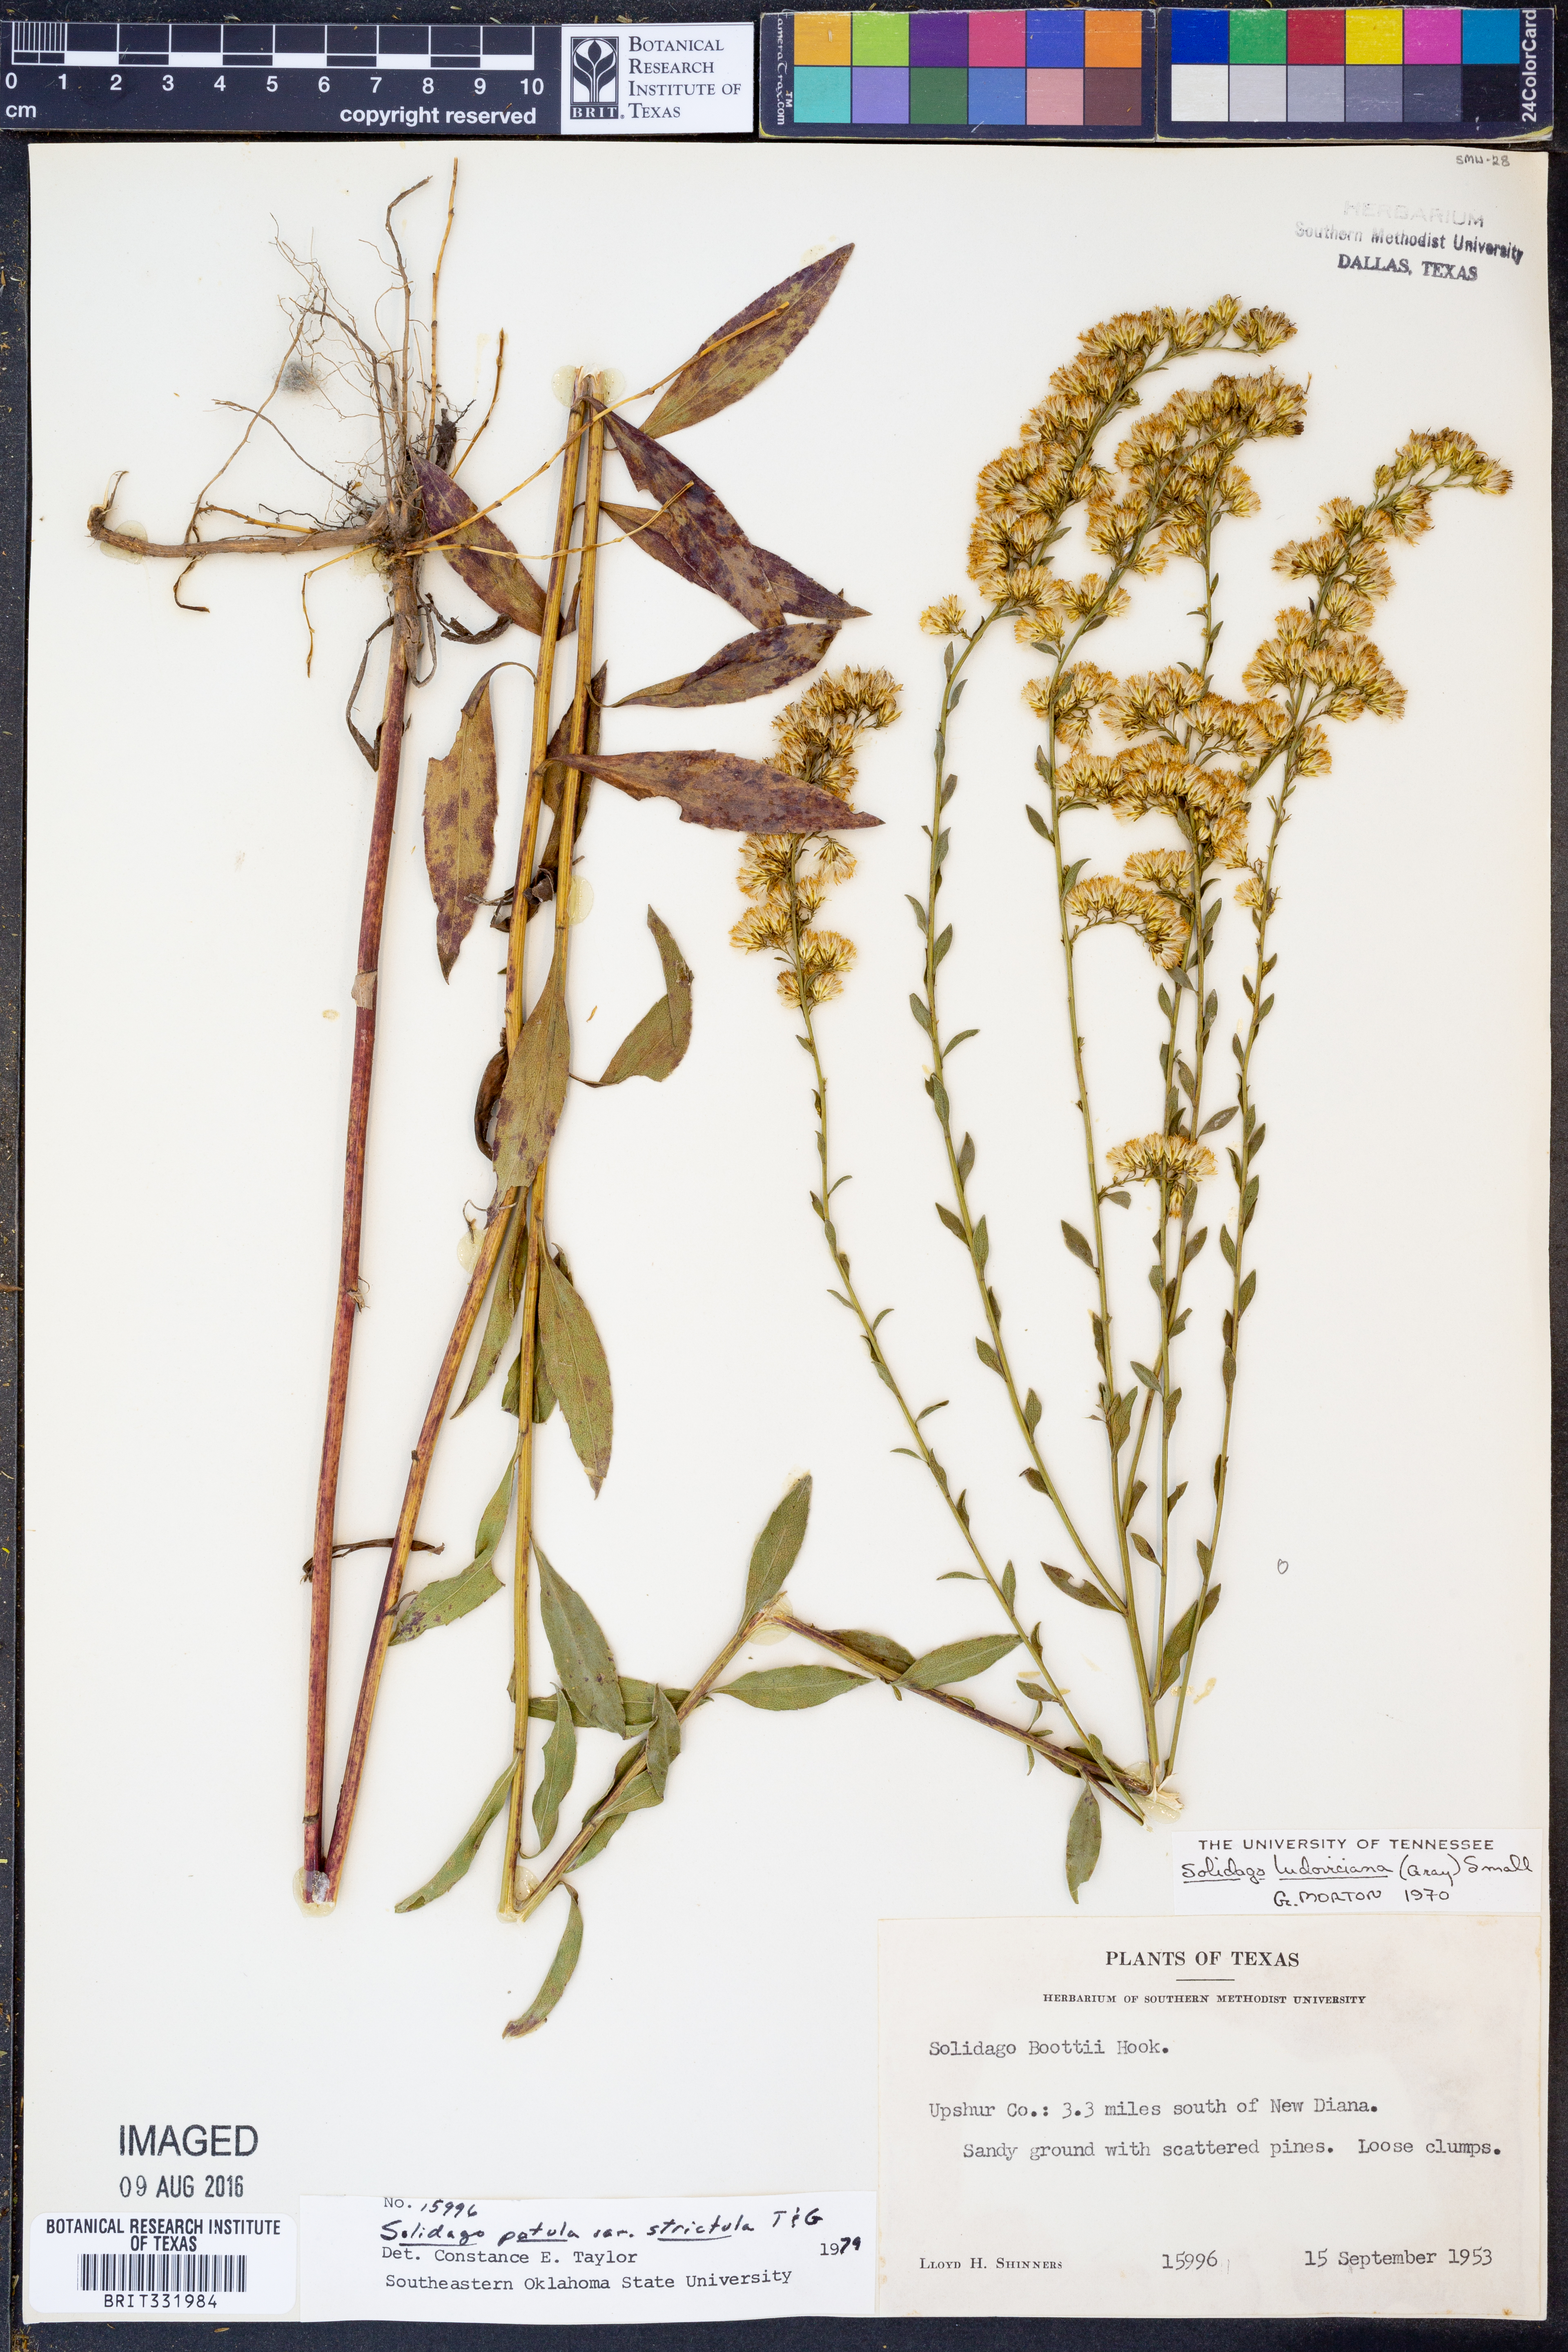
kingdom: Plantae
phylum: Tracheophyta
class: Magnoliopsida
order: Asterales
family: Asteraceae
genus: Solidago
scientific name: Solidago salicina
